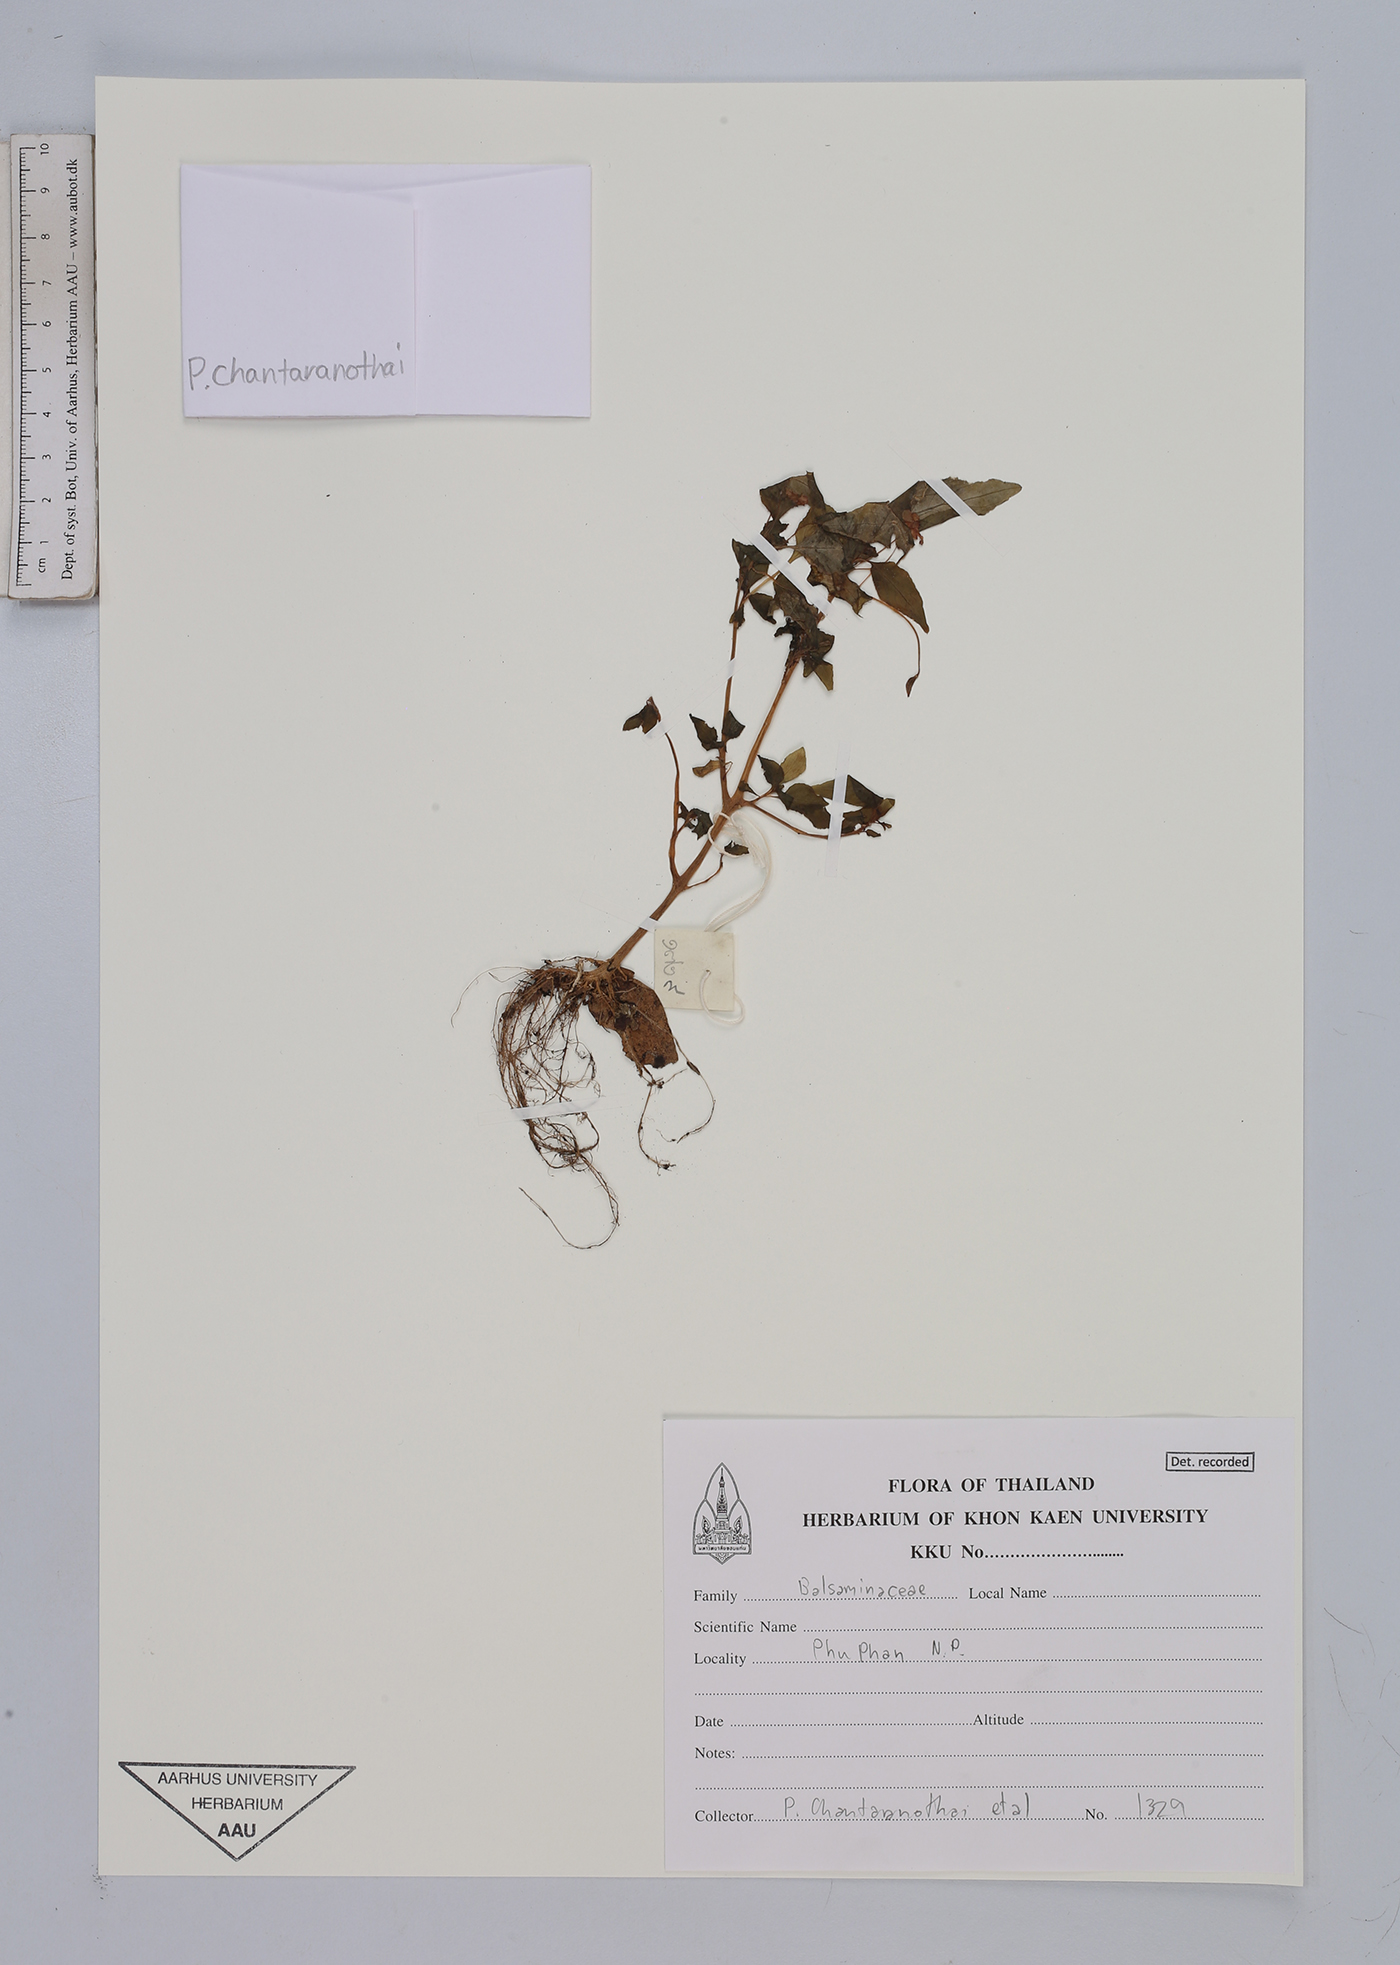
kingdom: Plantae
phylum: Tracheophyta
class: Magnoliopsida
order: Ericales
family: Balsaminaceae
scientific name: Balsaminaceae
